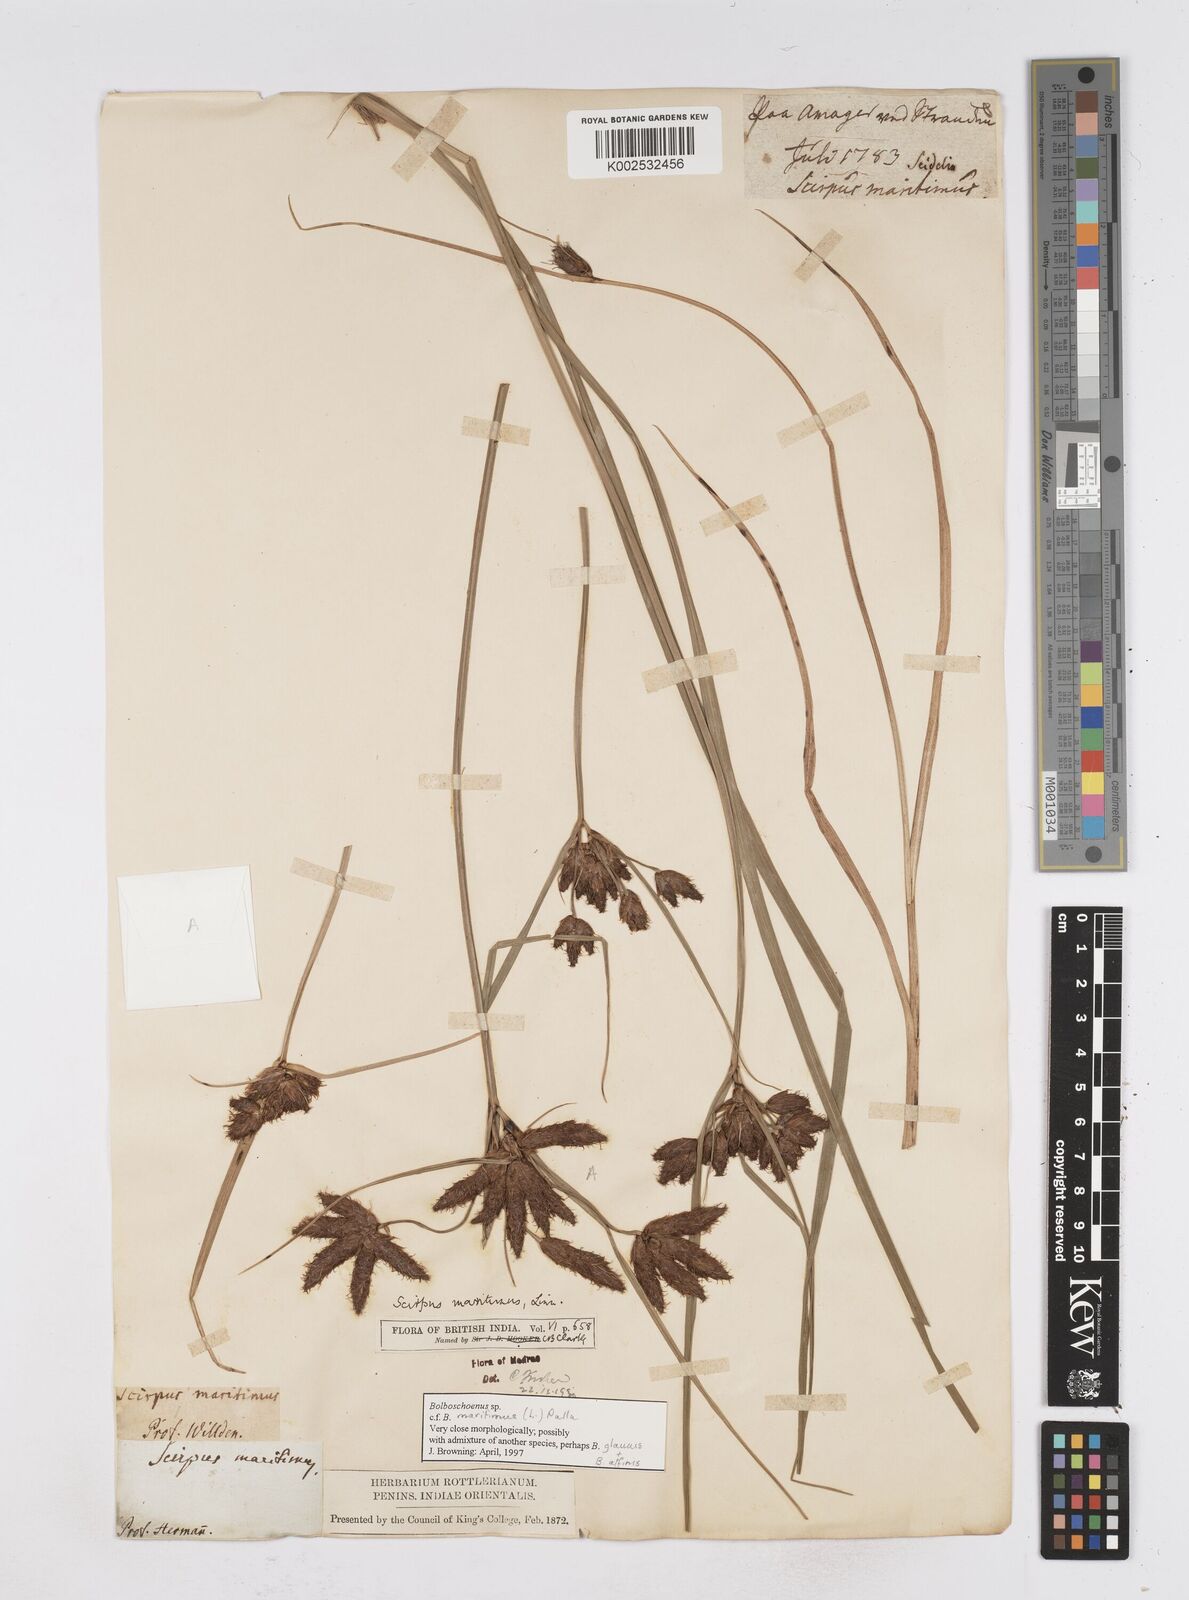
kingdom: Plantae
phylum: Tracheophyta
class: Liliopsida
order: Poales
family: Cyperaceae
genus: Bolboschoenus
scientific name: Bolboschoenus maritimus
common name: Sea club-rush
